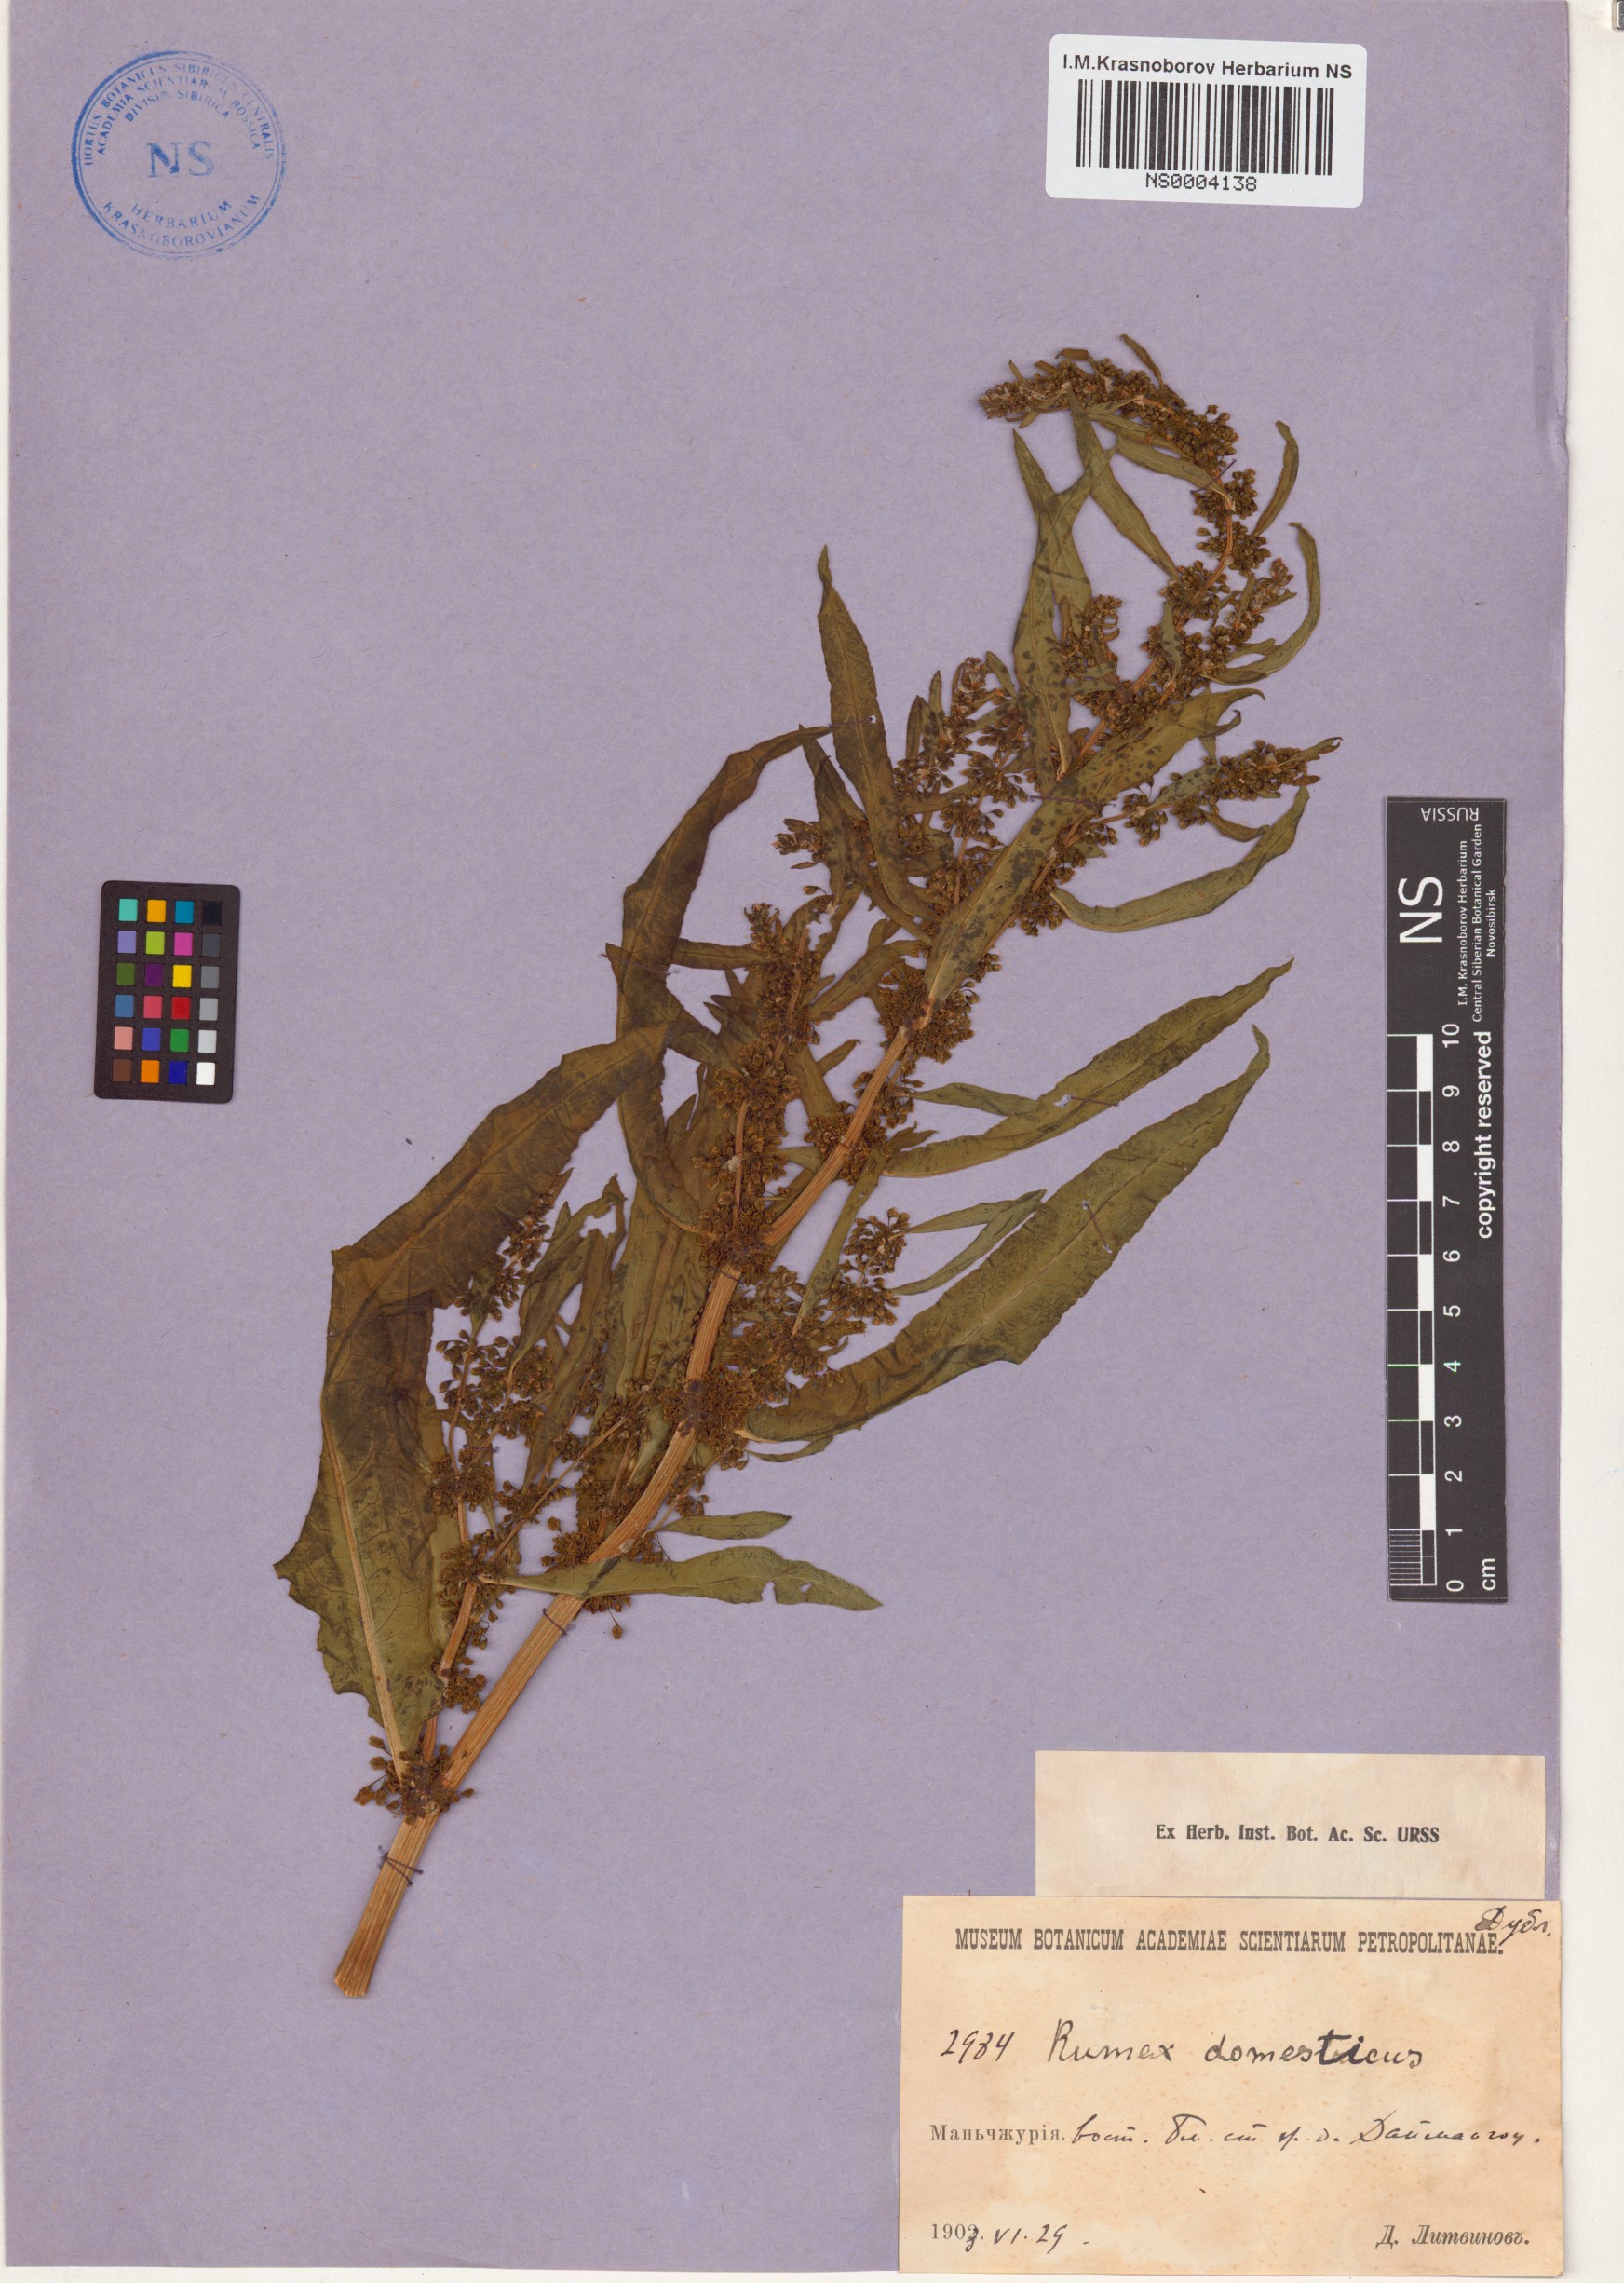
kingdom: Plantae
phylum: Tracheophyta
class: Magnoliopsida
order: Caryophyllales
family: Polygonaceae
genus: Rumex
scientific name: Rumex longifolius
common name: Dooryard dock
